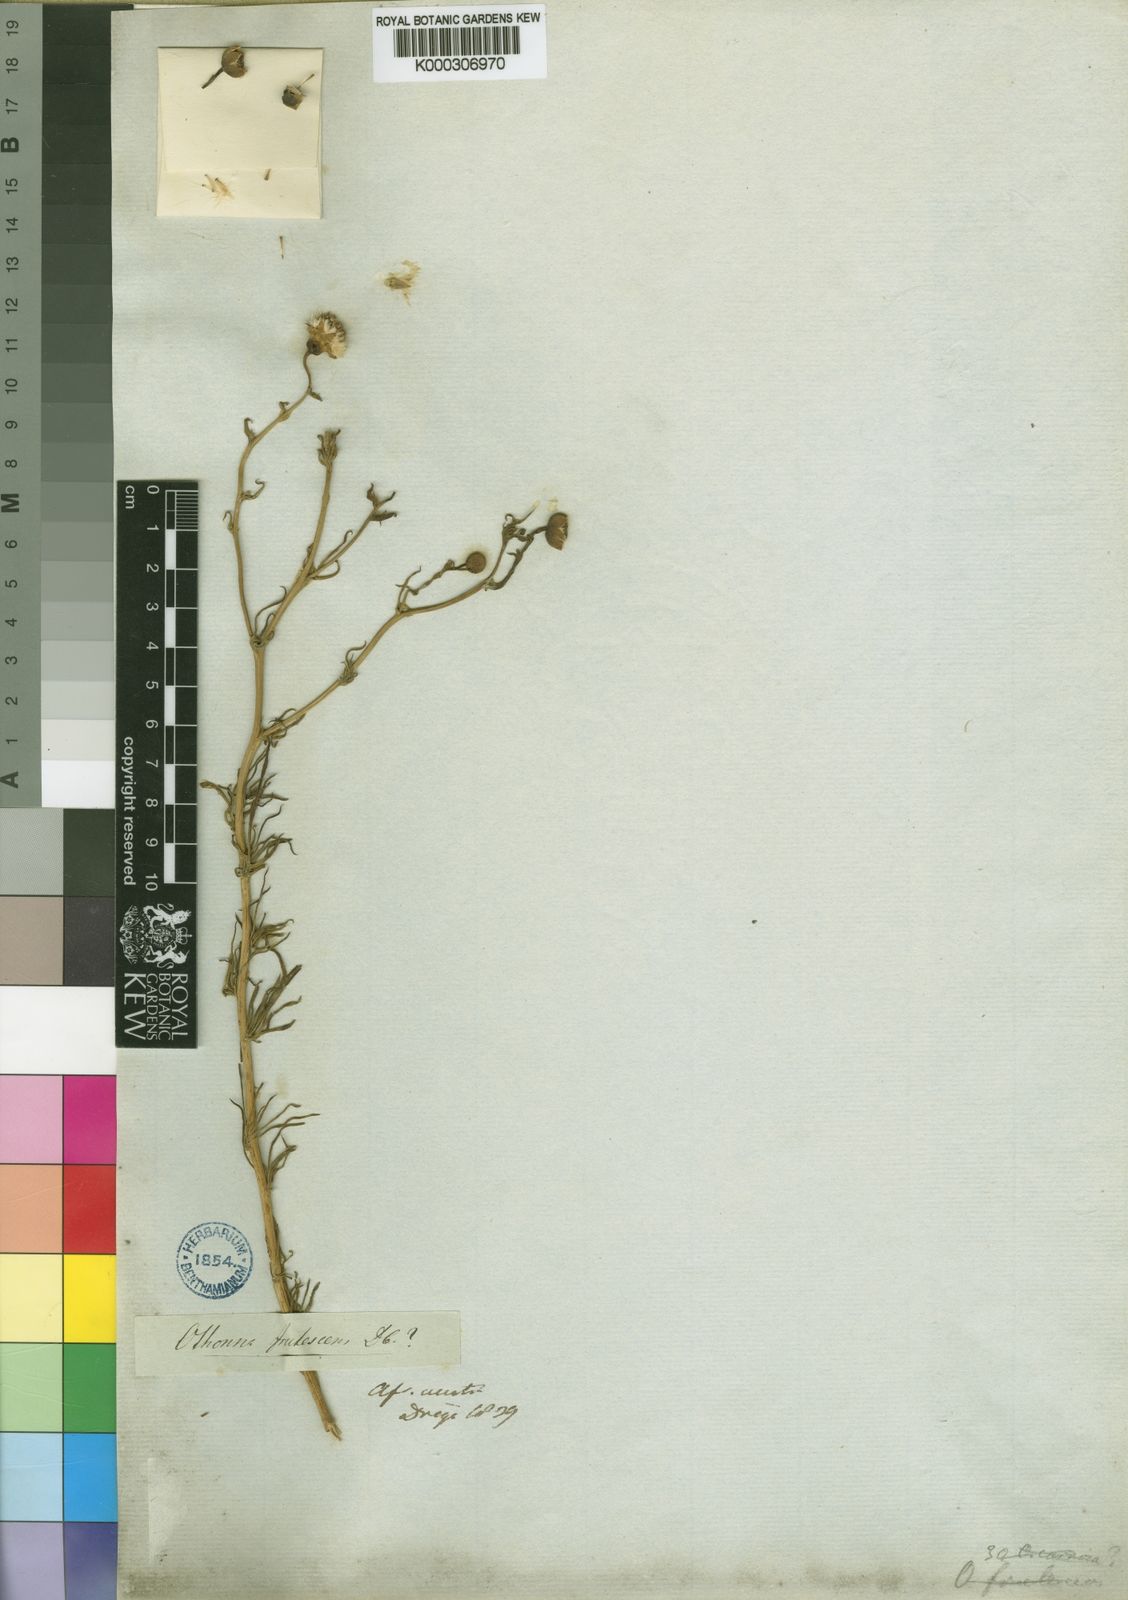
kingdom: Plantae
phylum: Tracheophyta
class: Magnoliopsida
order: Asterales
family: Asteraceae
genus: Othonna
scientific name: Othonna leptodactyla
